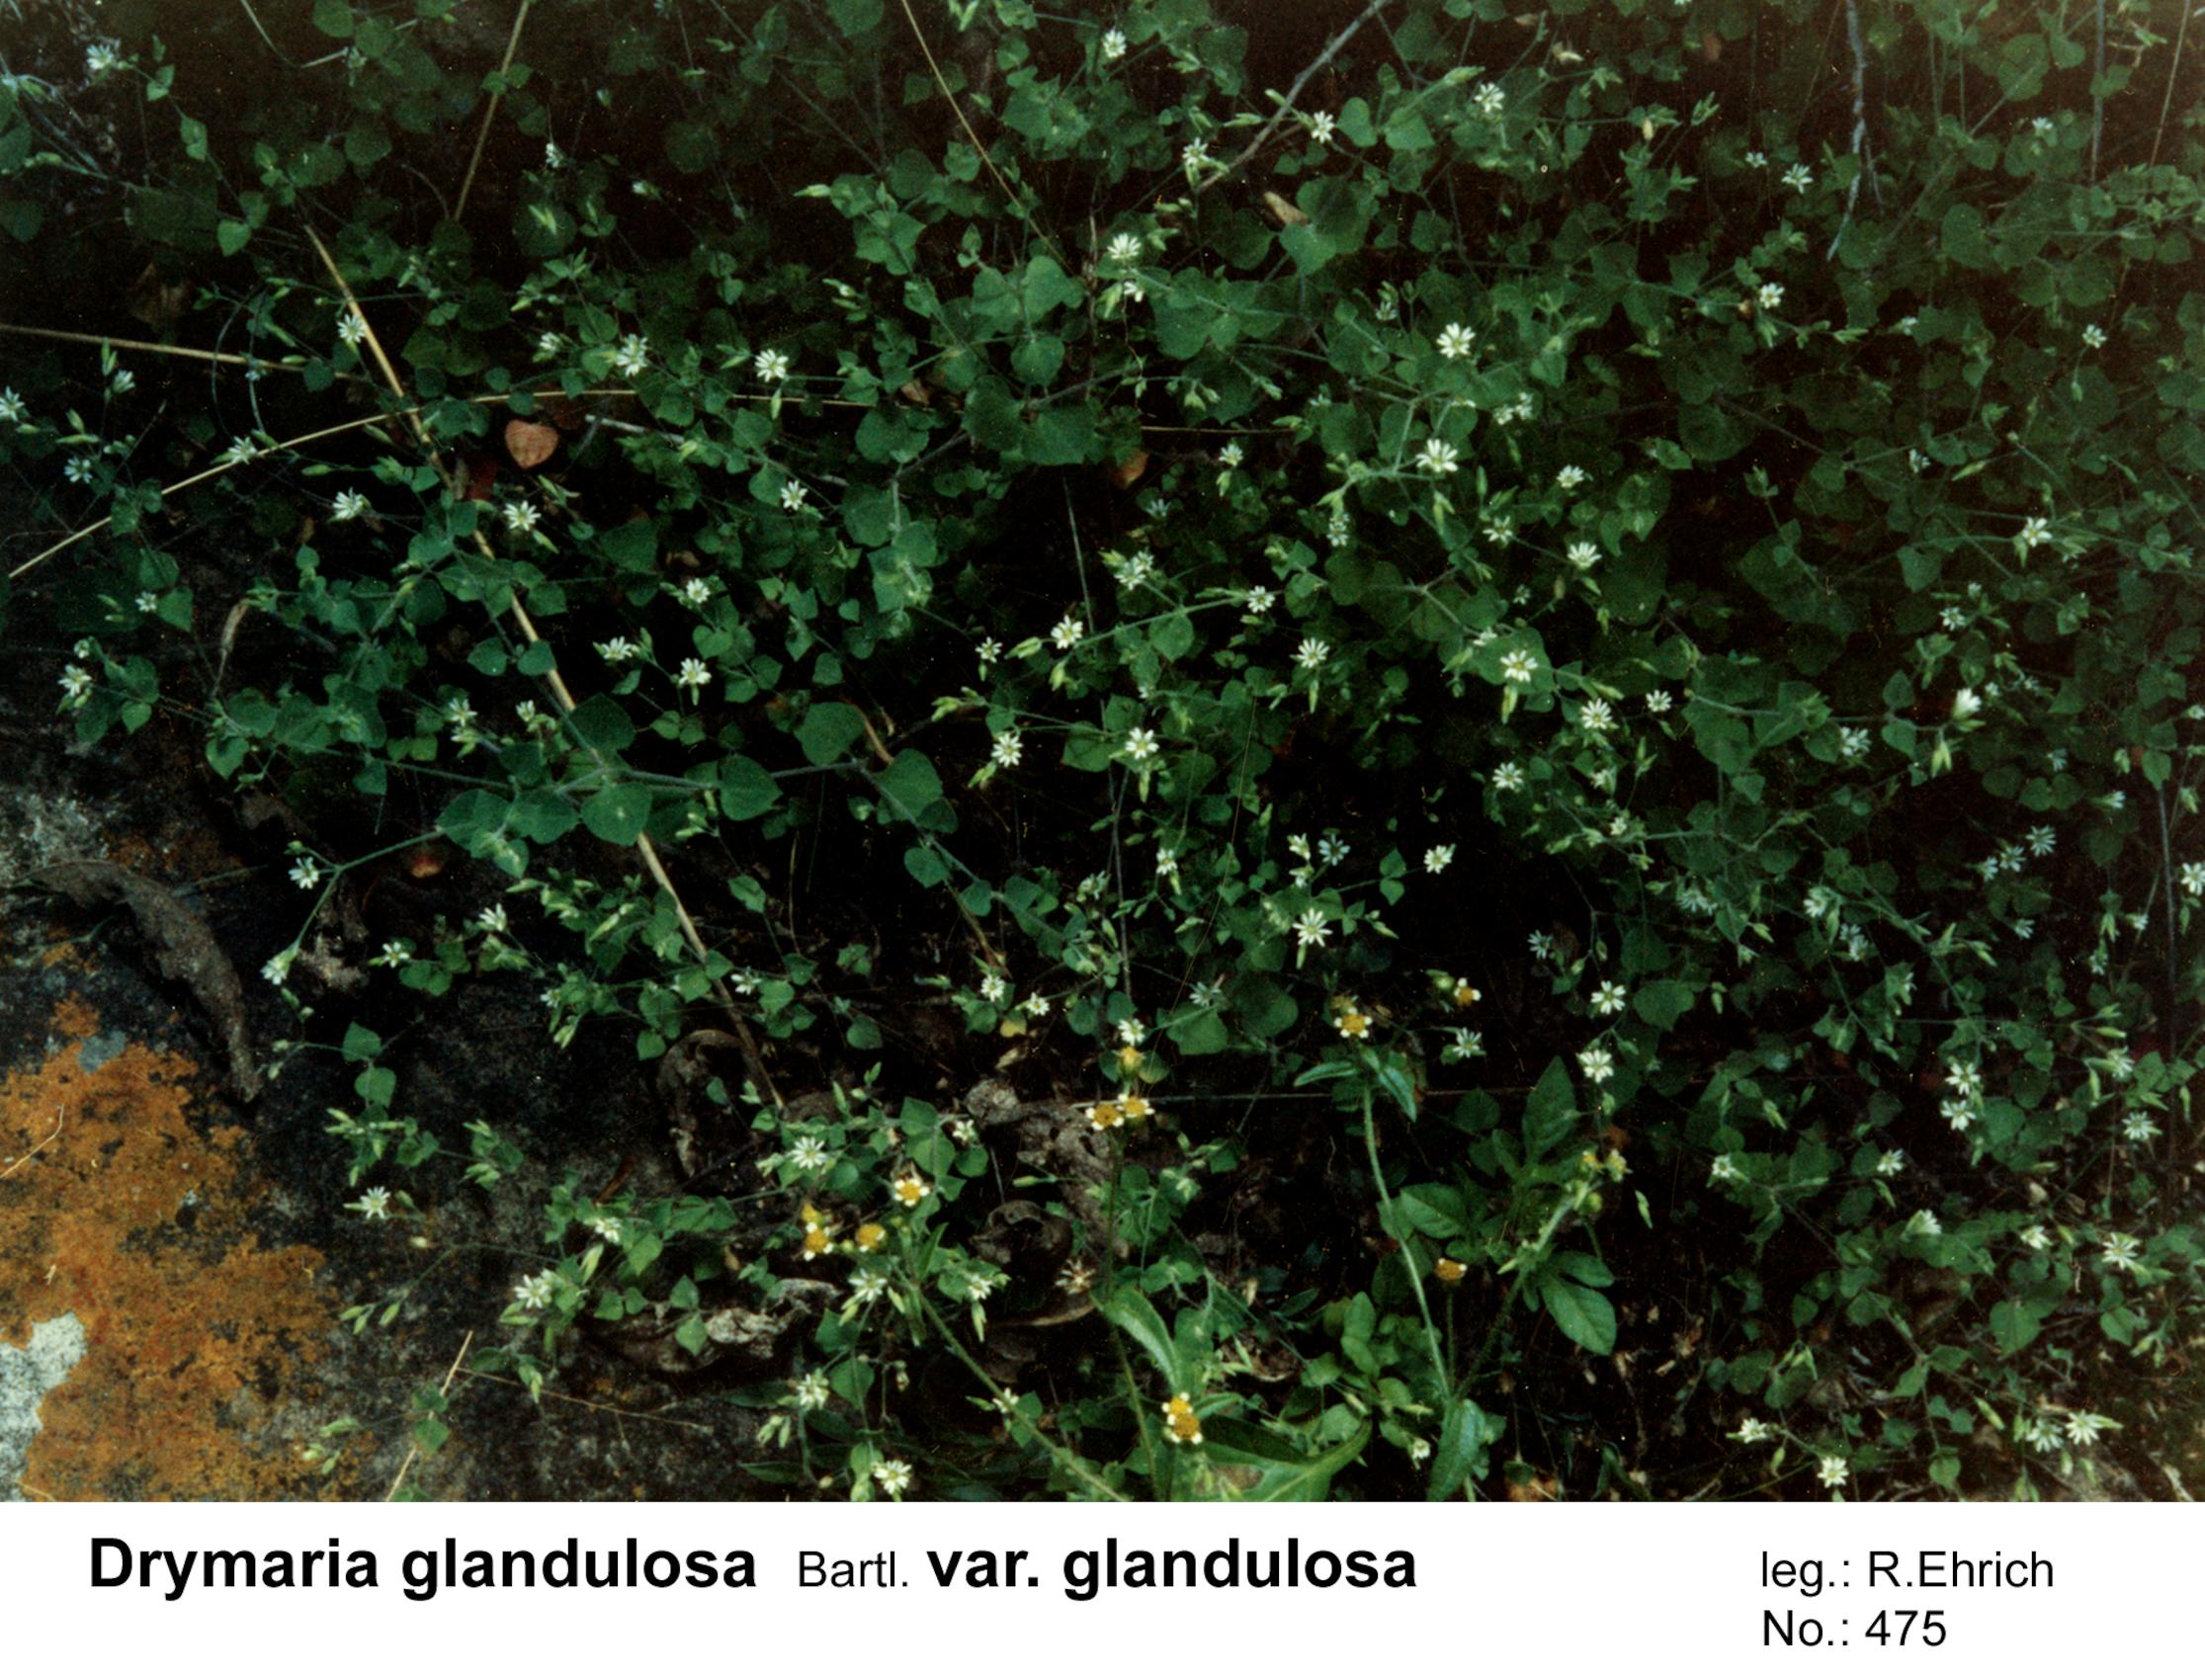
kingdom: Plantae
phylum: Tracheophyta
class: Magnoliopsida
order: Caryophyllales
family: Caryophyllaceae
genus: Drymaria
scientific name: Drymaria glandulosa
